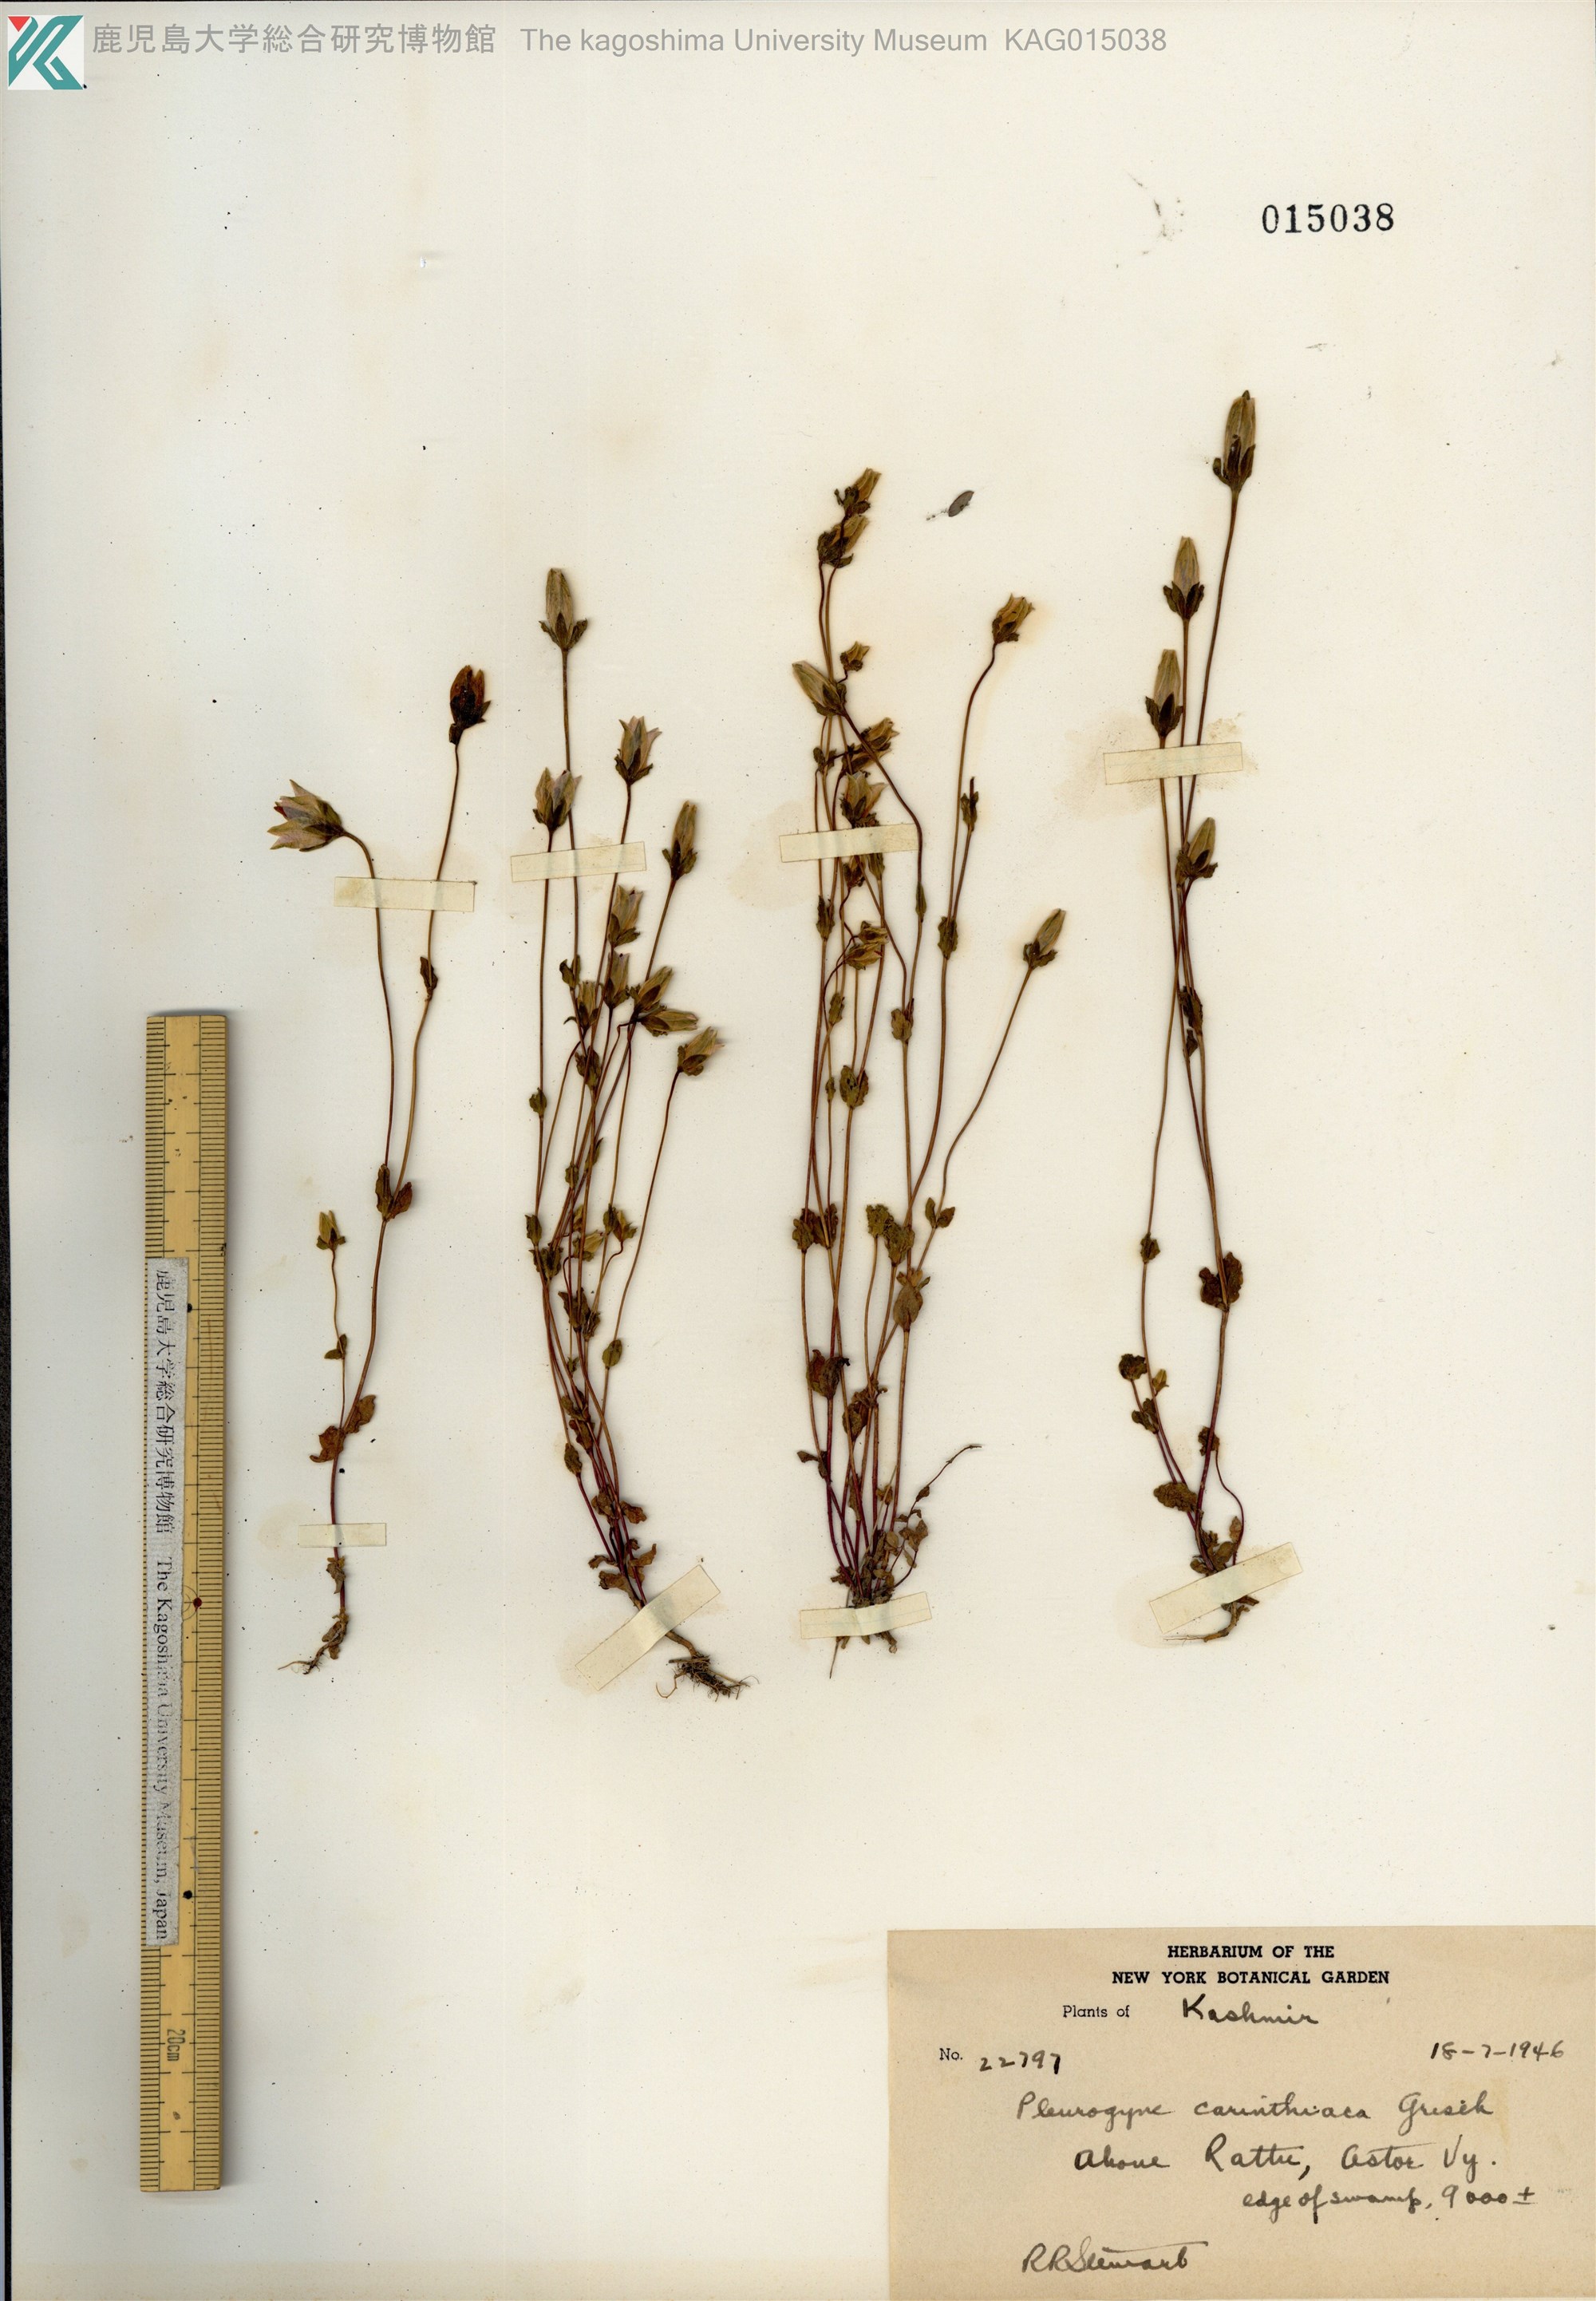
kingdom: Plantae
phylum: Tracheophyta
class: Magnoliopsida
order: Gentianales
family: Gentianaceae
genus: Lomatogonium
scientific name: Lomatogonium carinthiacum
